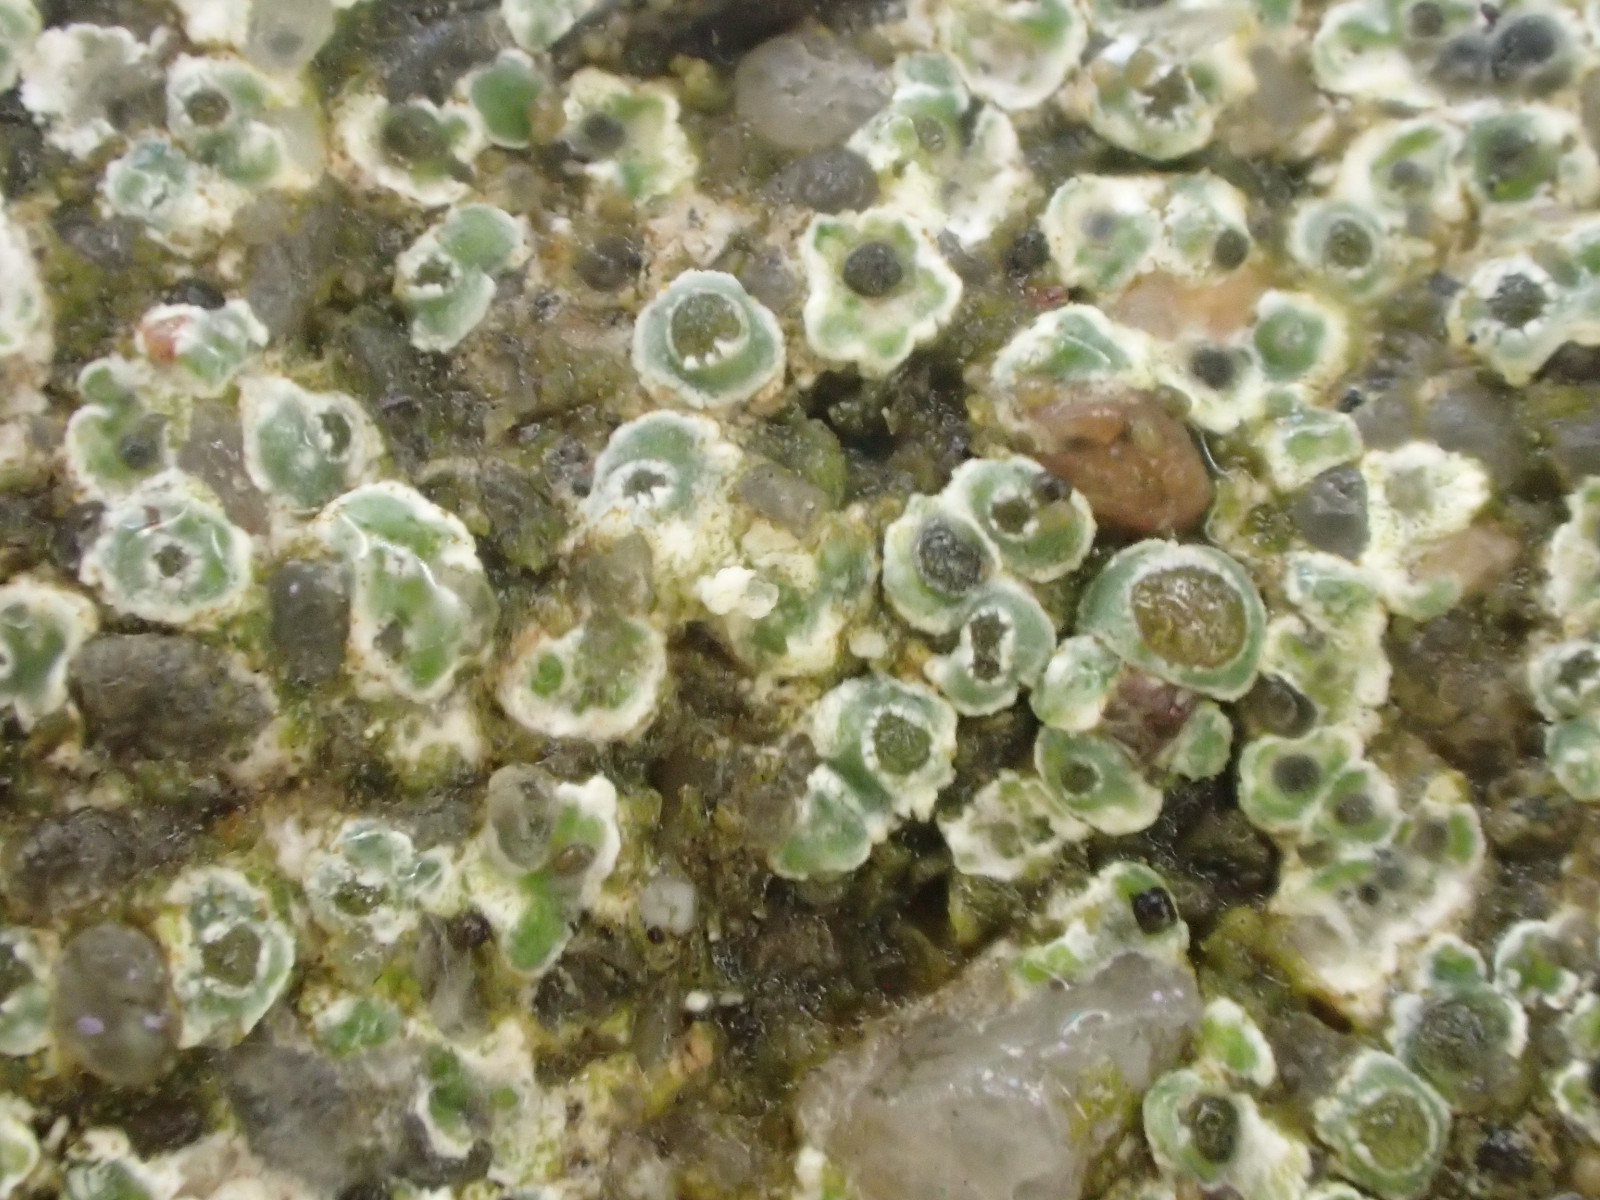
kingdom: Fungi
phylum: Ascomycota
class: Lecanoromycetes
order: Pertusariales
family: Megasporaceae
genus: Circinaria
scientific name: Circinaria contorta
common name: indviklet hulskivelav
